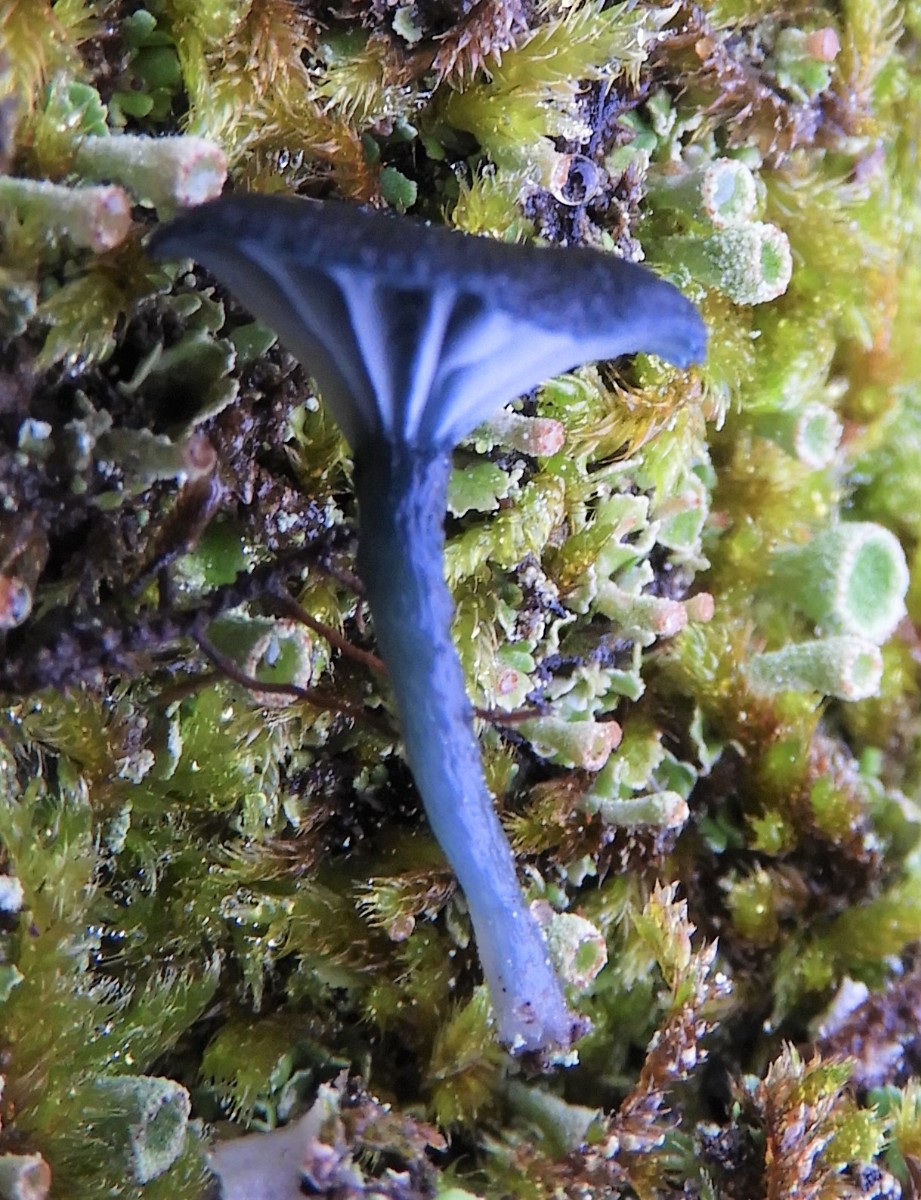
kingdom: Fungi
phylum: Basidiomycota
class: Agaricomycetes
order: Agaricales
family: Hygrophoraceae
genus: Arrhenia
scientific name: Arrhenia chlorocyanea
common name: blågrøn fontænehat
